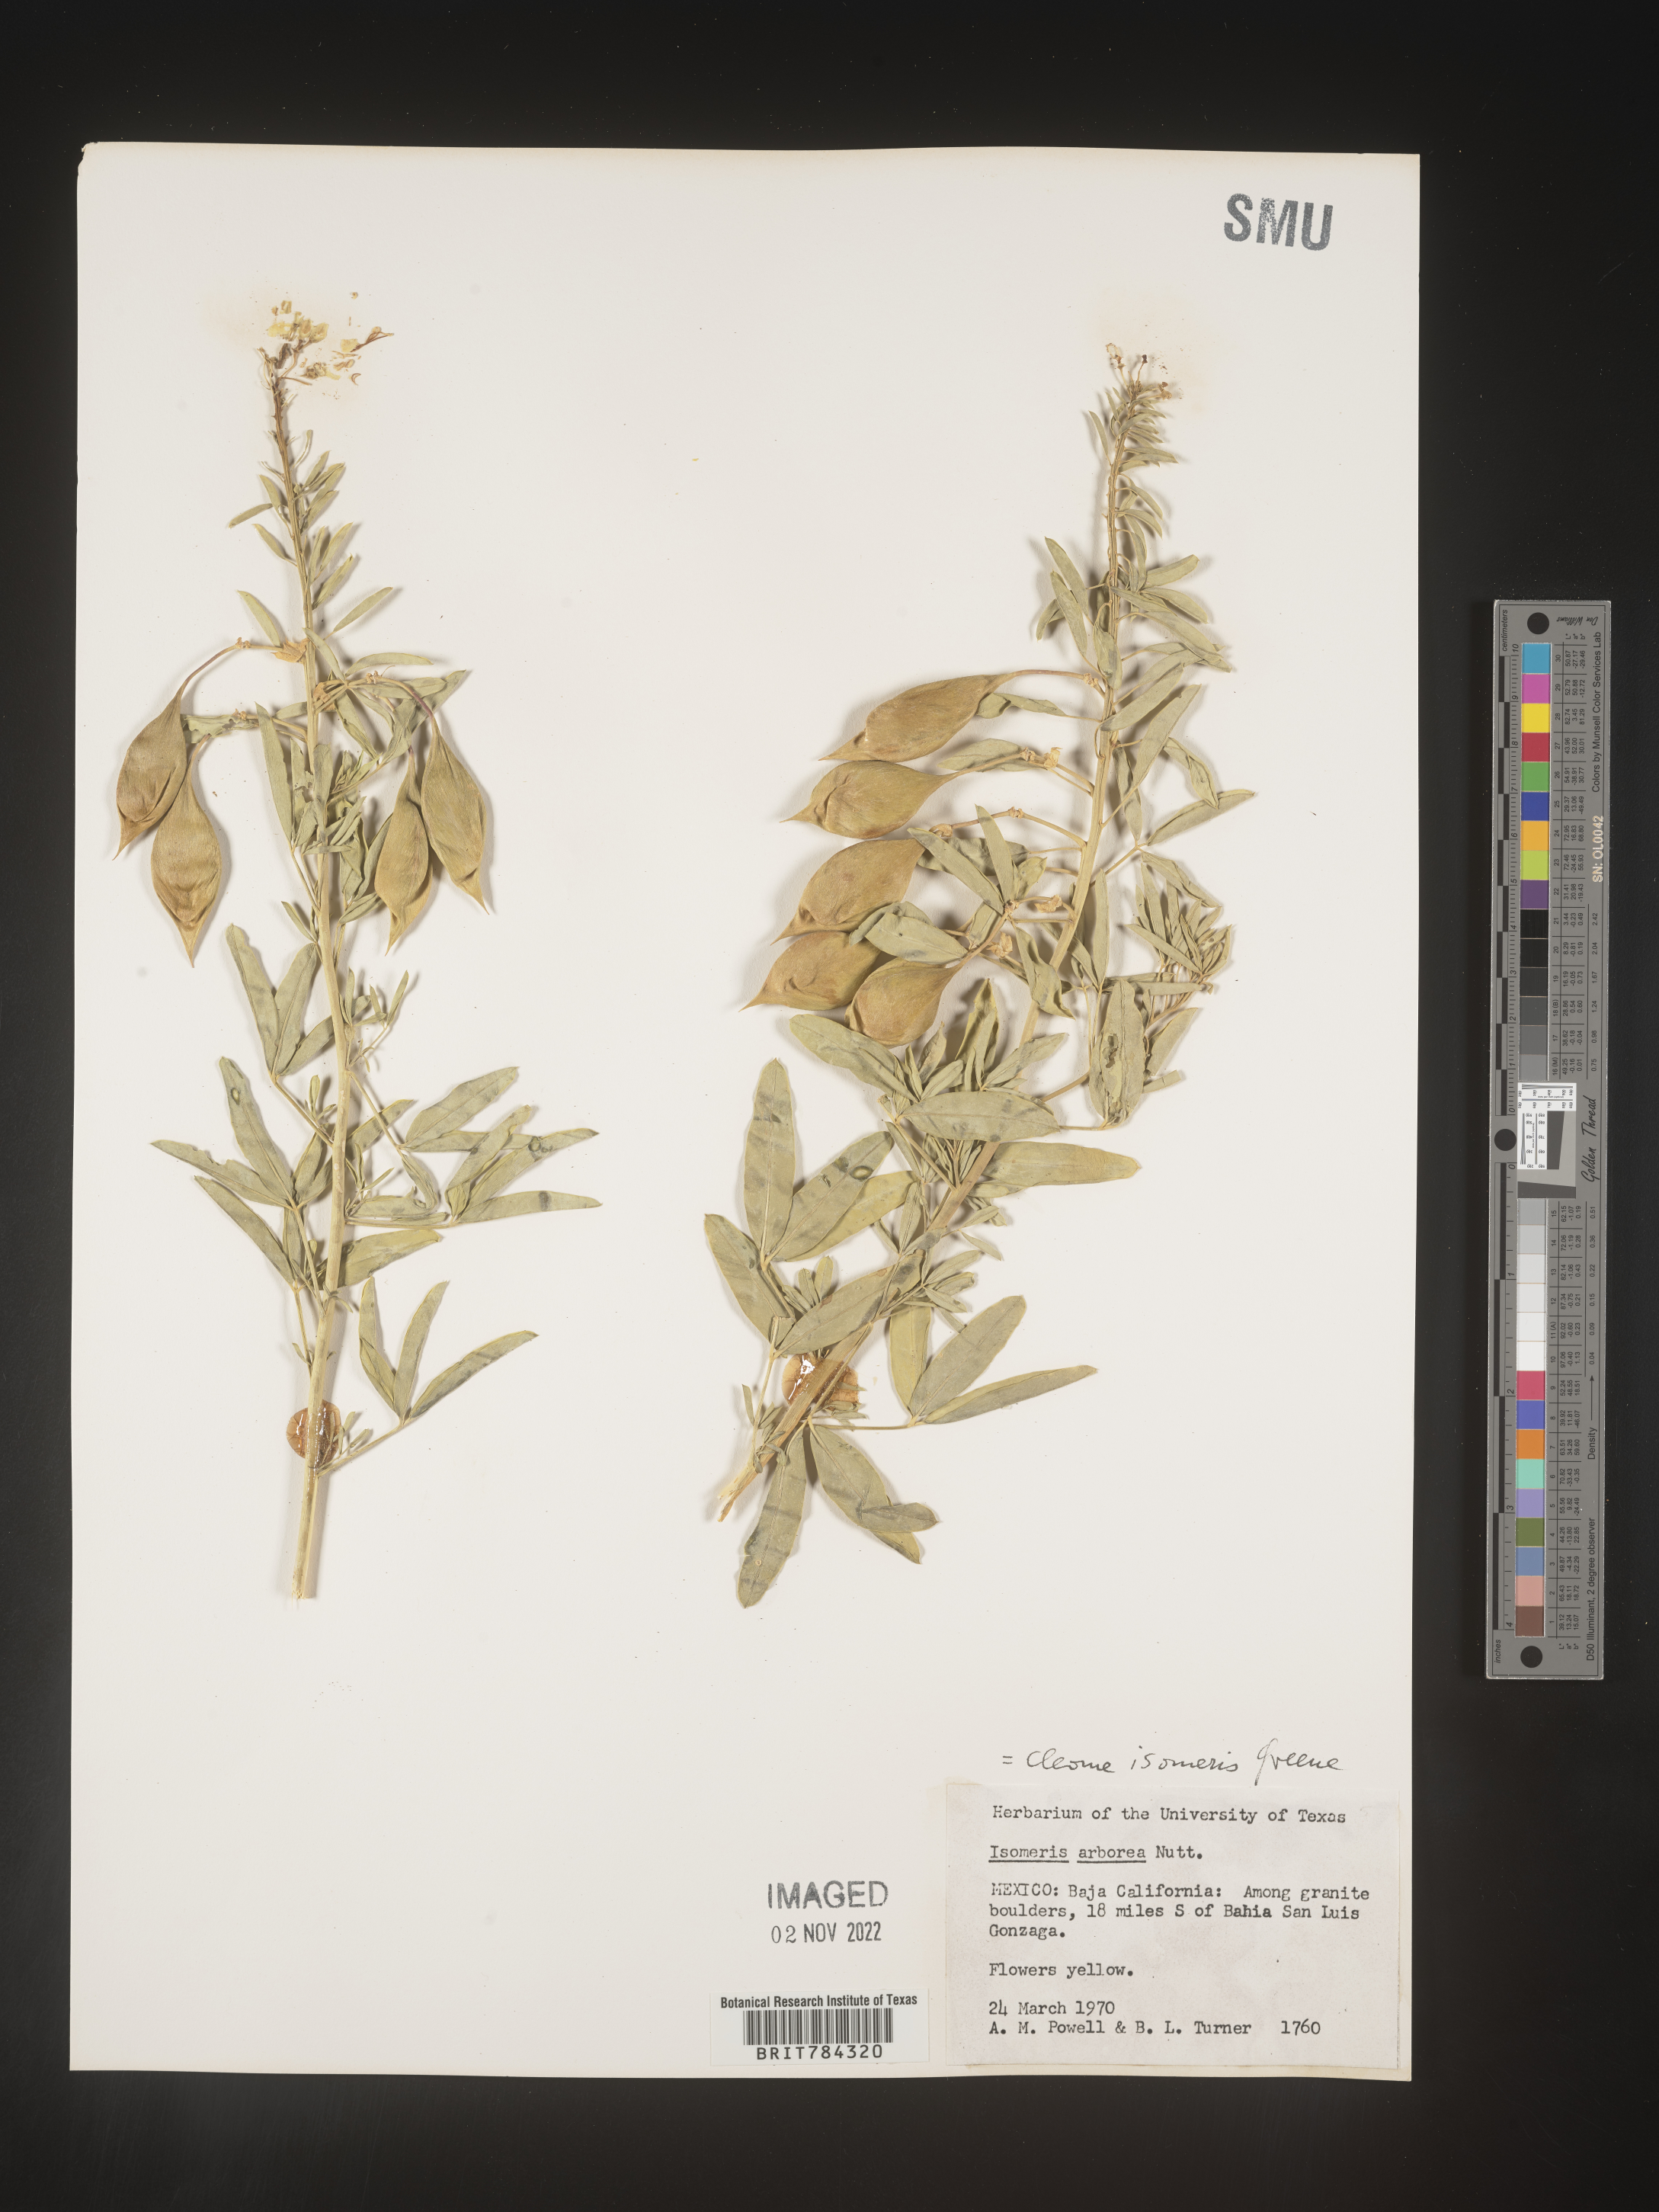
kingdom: Plantae
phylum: Tracheophyta
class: Magnoliopsida
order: Brassicales
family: Cleomaceae
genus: Cleome
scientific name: Cleome
